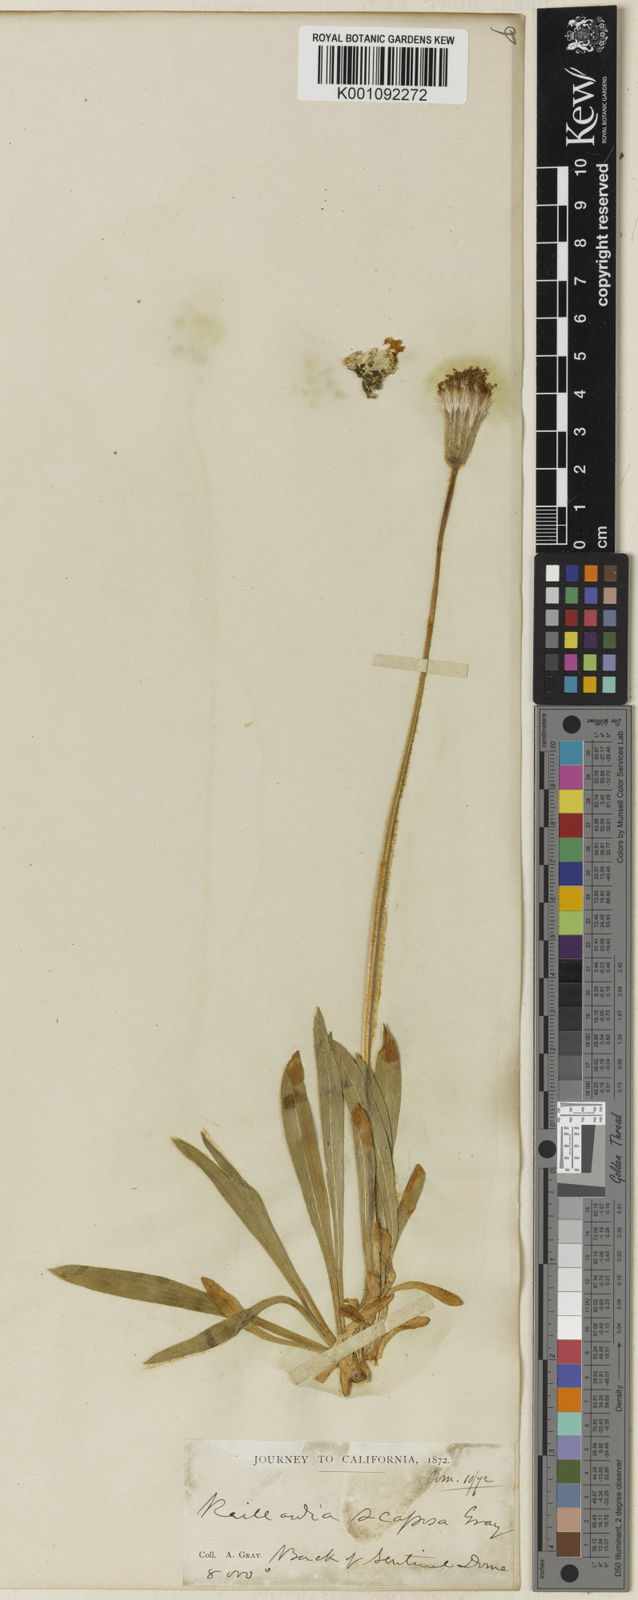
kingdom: Plantae
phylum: Tracheophyta
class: Magnoliopsida
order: Asterales
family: Asteraceae
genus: Raillardella
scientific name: Raillardella scaposa
